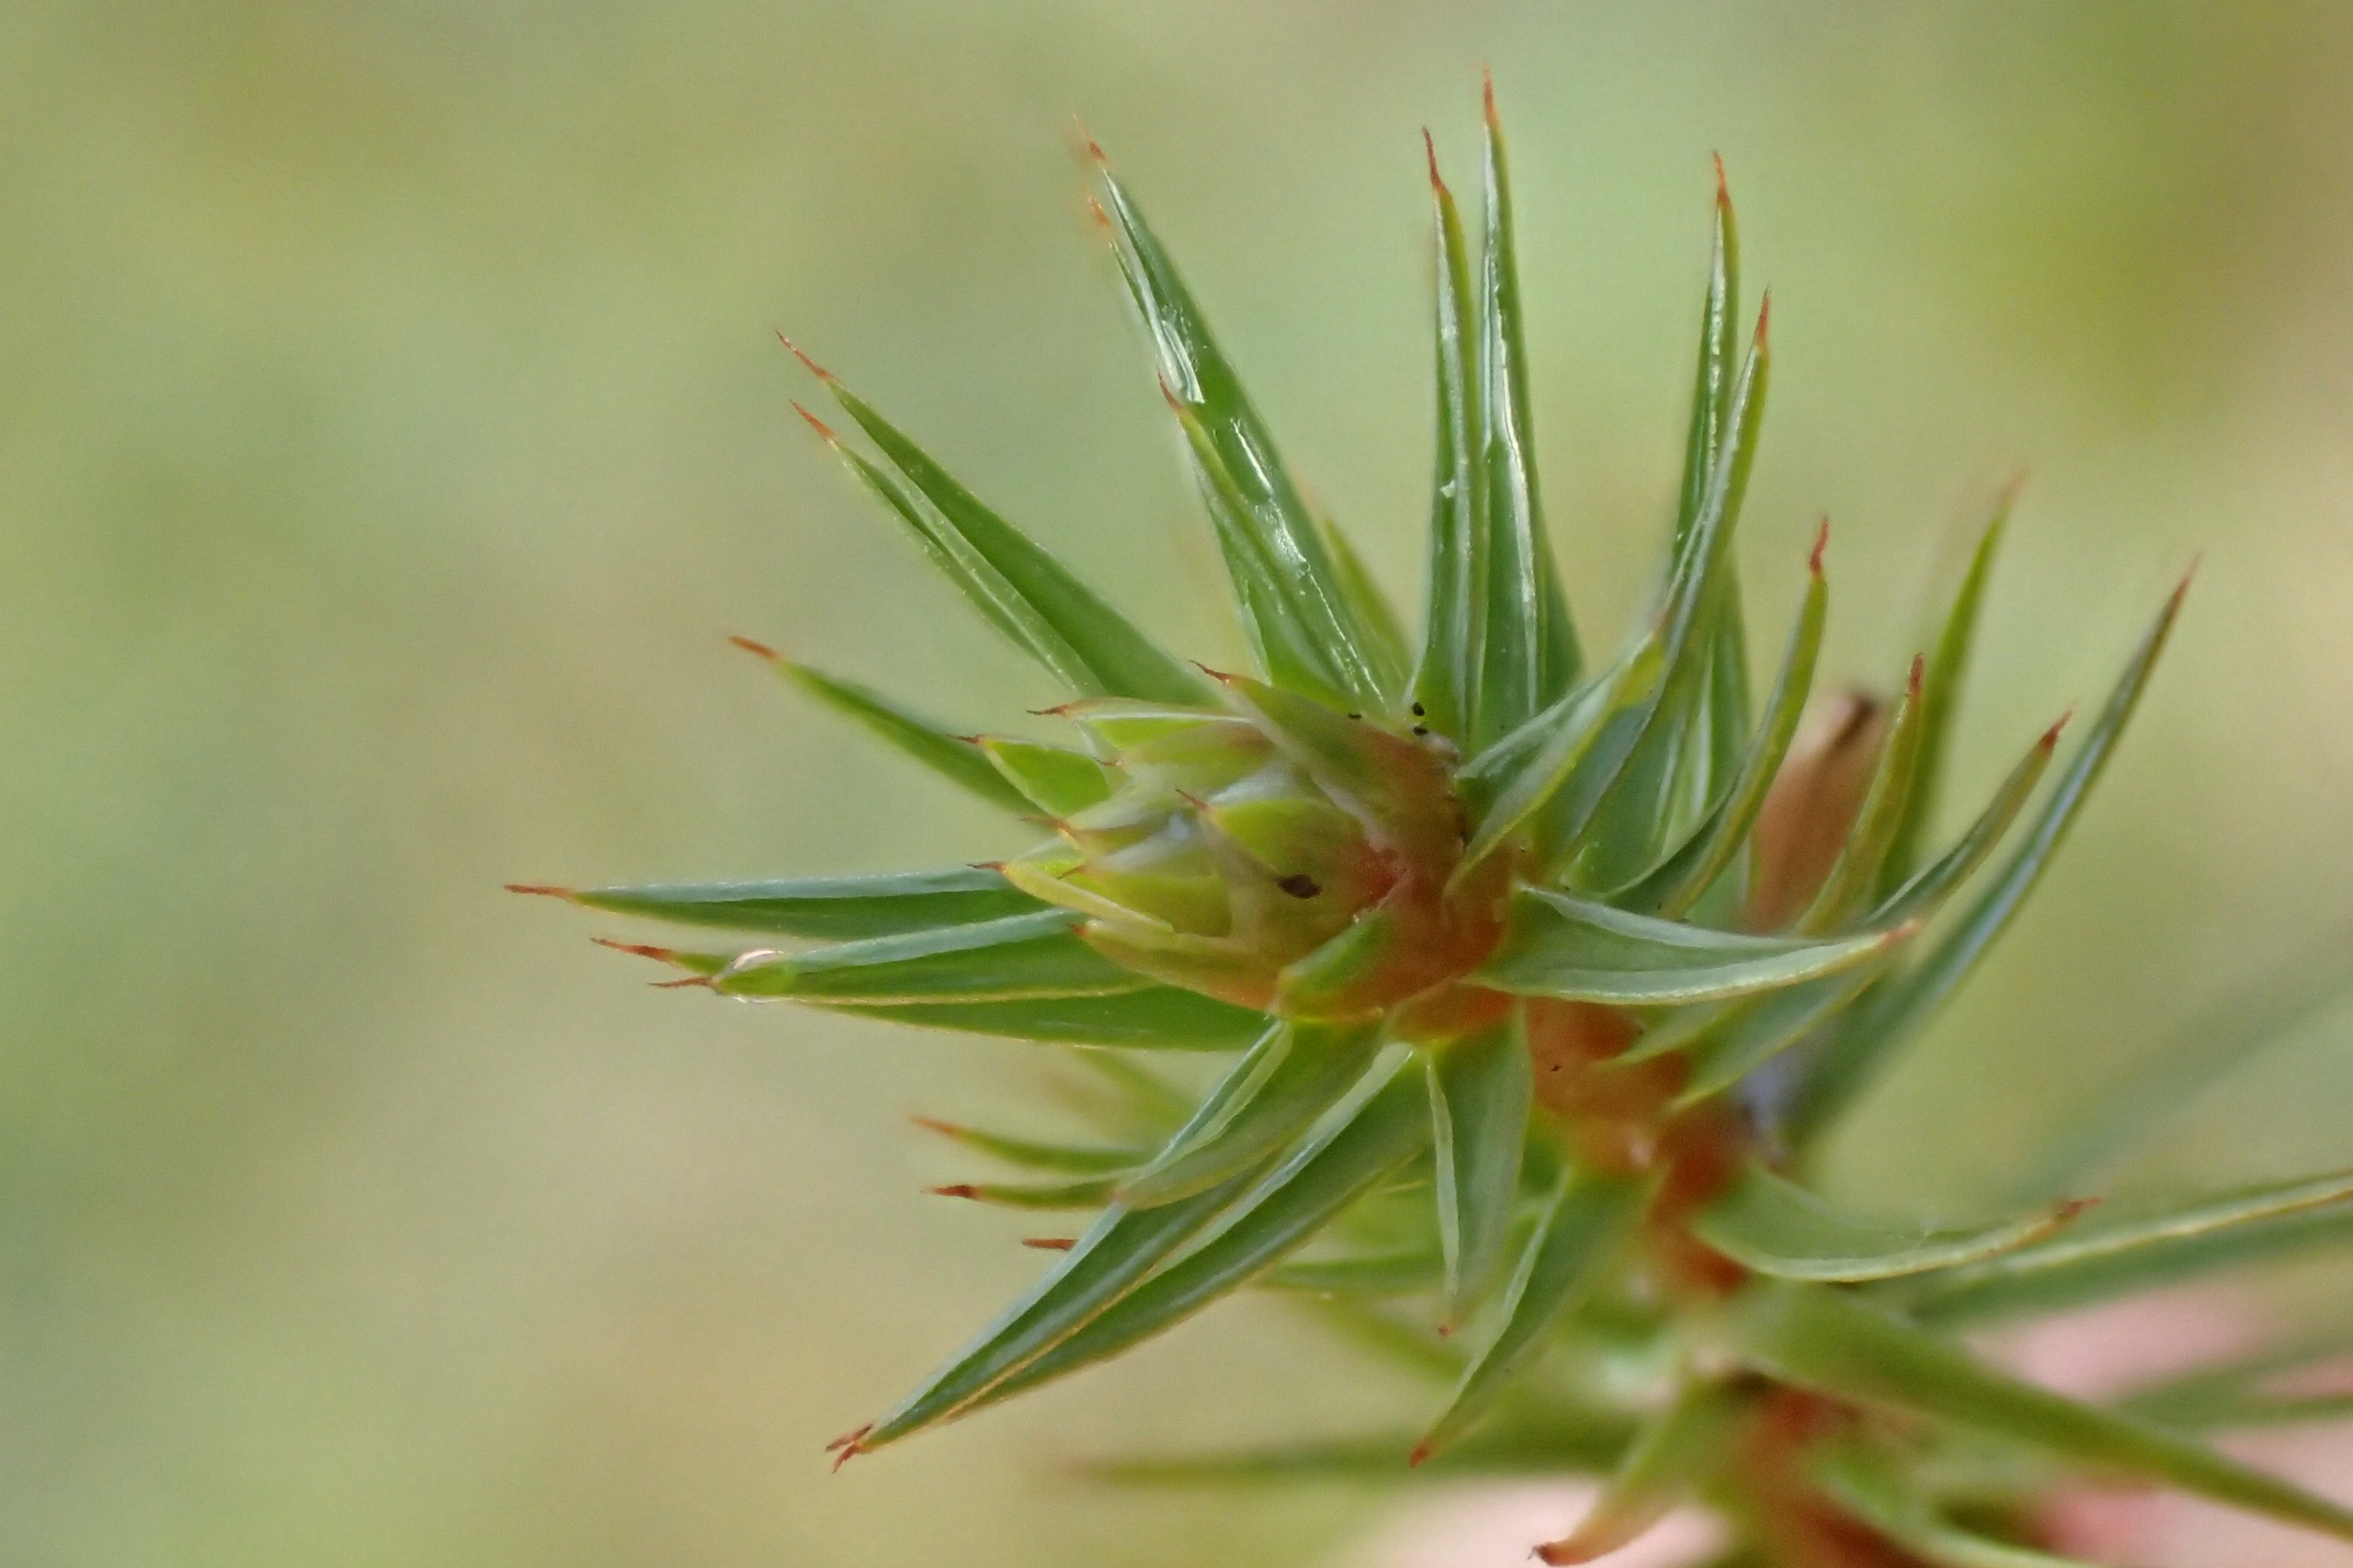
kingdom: Plantae
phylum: Bryophyta
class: Polytrichopsida
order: Polytrichales
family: Polytrichaceae
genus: Polytrichum
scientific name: Polytrichum juniperinum
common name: Ene-jomfruhår
